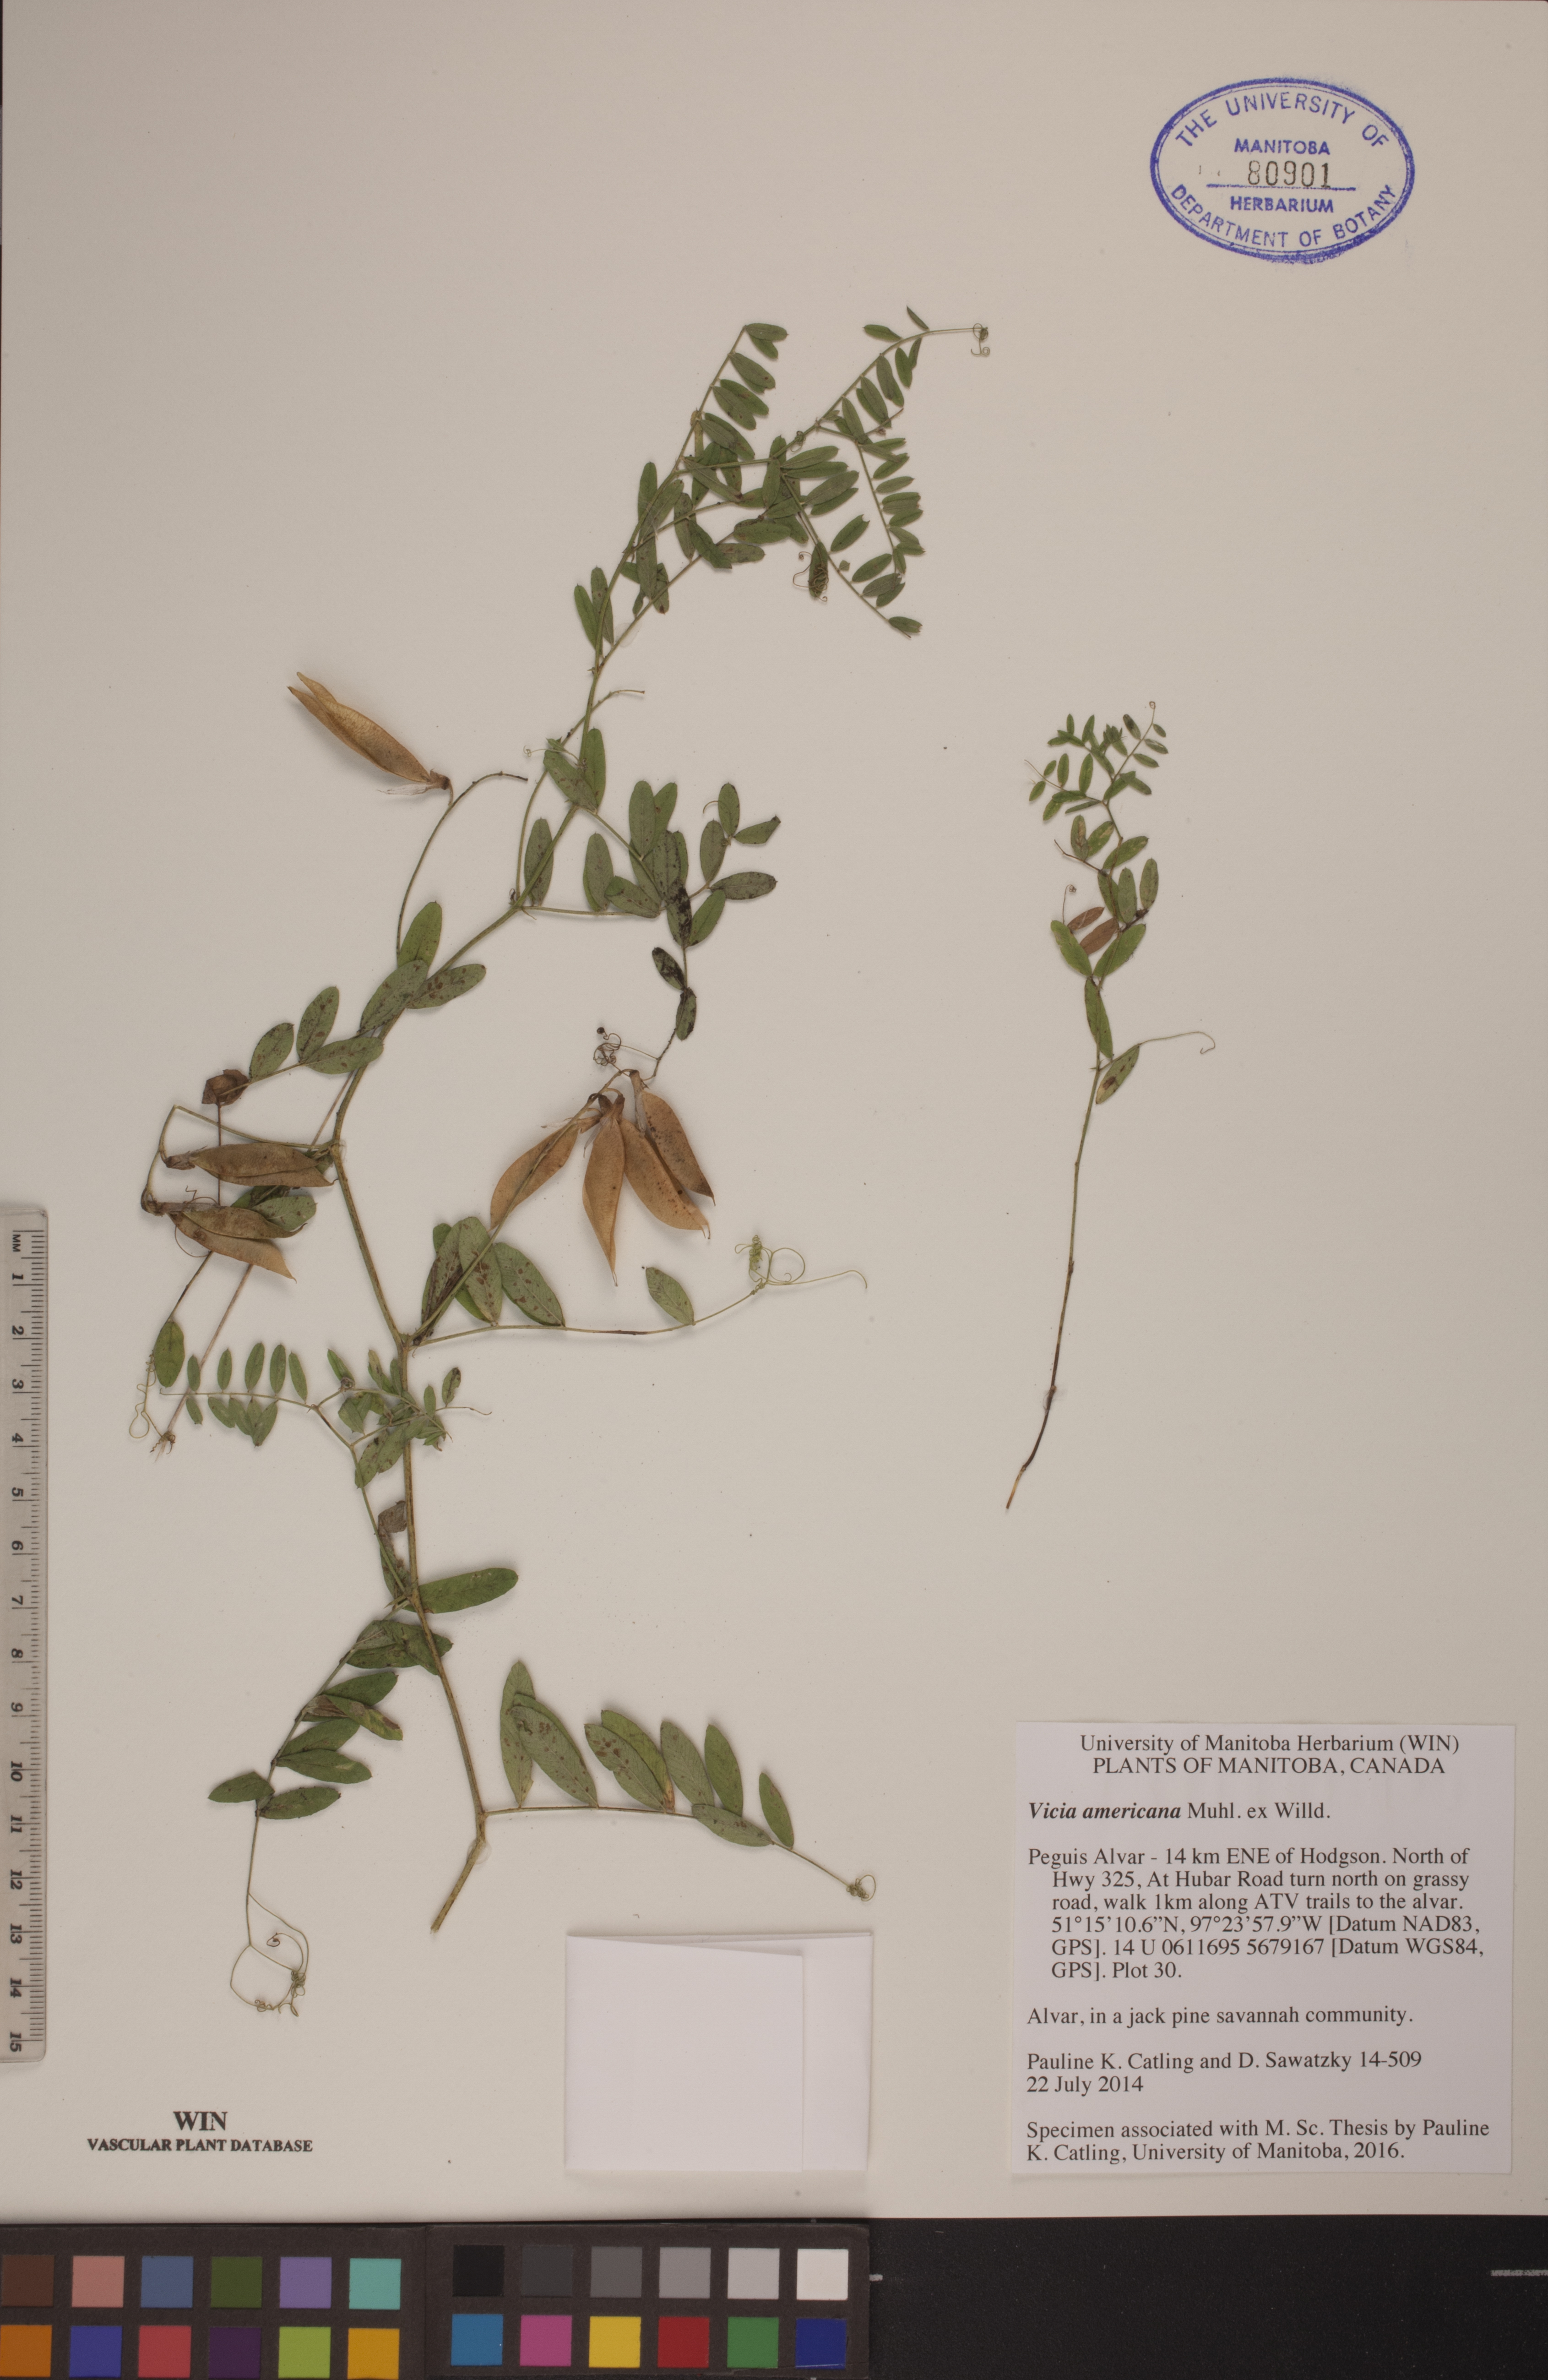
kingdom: Plantae
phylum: Tracheophyta
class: Magnoliopsida
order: Fabales
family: Fabaceae
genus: Vicia
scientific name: Vicia americana
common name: American vetch
